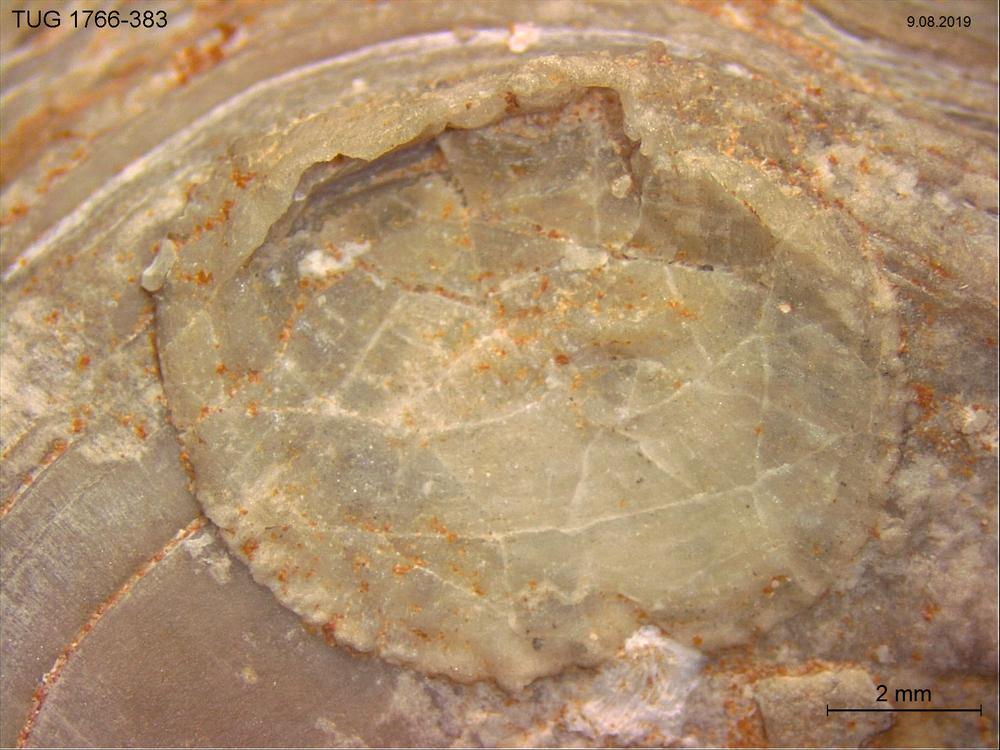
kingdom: Animalia
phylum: Brachiopoda
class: Craniata
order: Craniida
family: Craniidae
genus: Philhedra
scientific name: Philhedra
